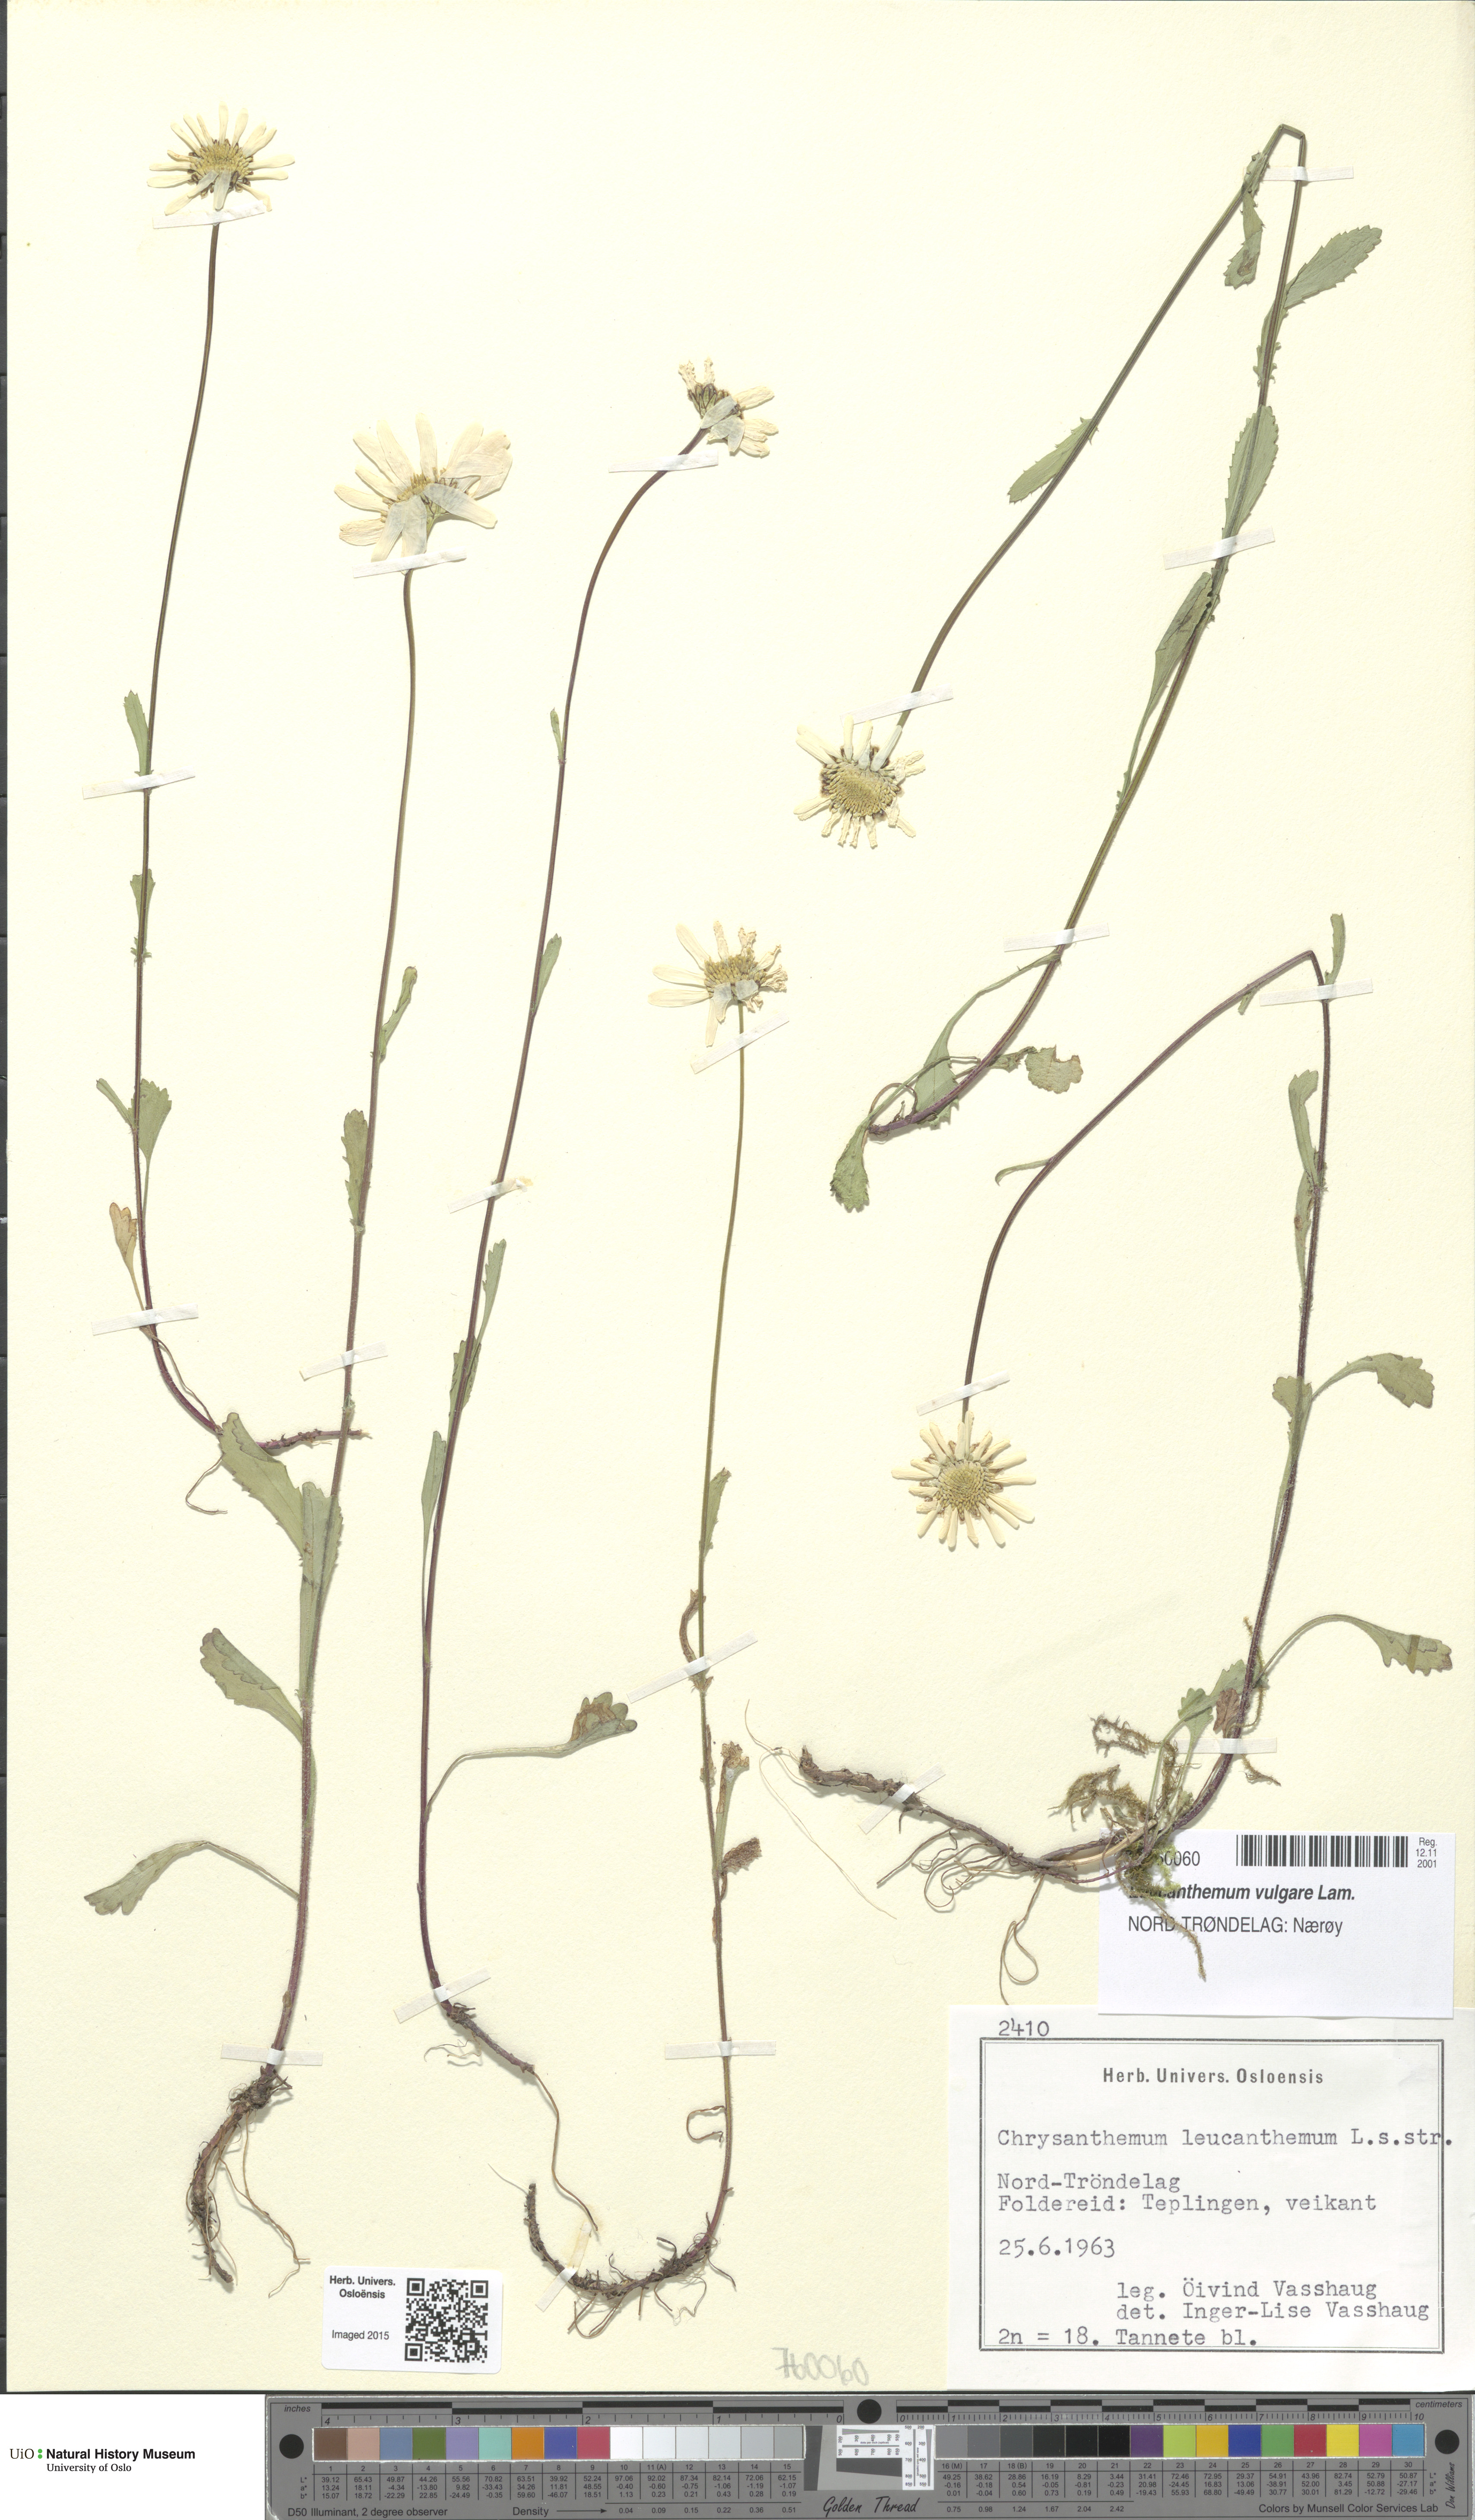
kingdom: Plantae
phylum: Tracheophyta
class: Magnoliopsida
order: Asterales
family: Asteraceae
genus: Leucanthemum
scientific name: Leucanthemum vulgare
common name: Oxeye daisy
